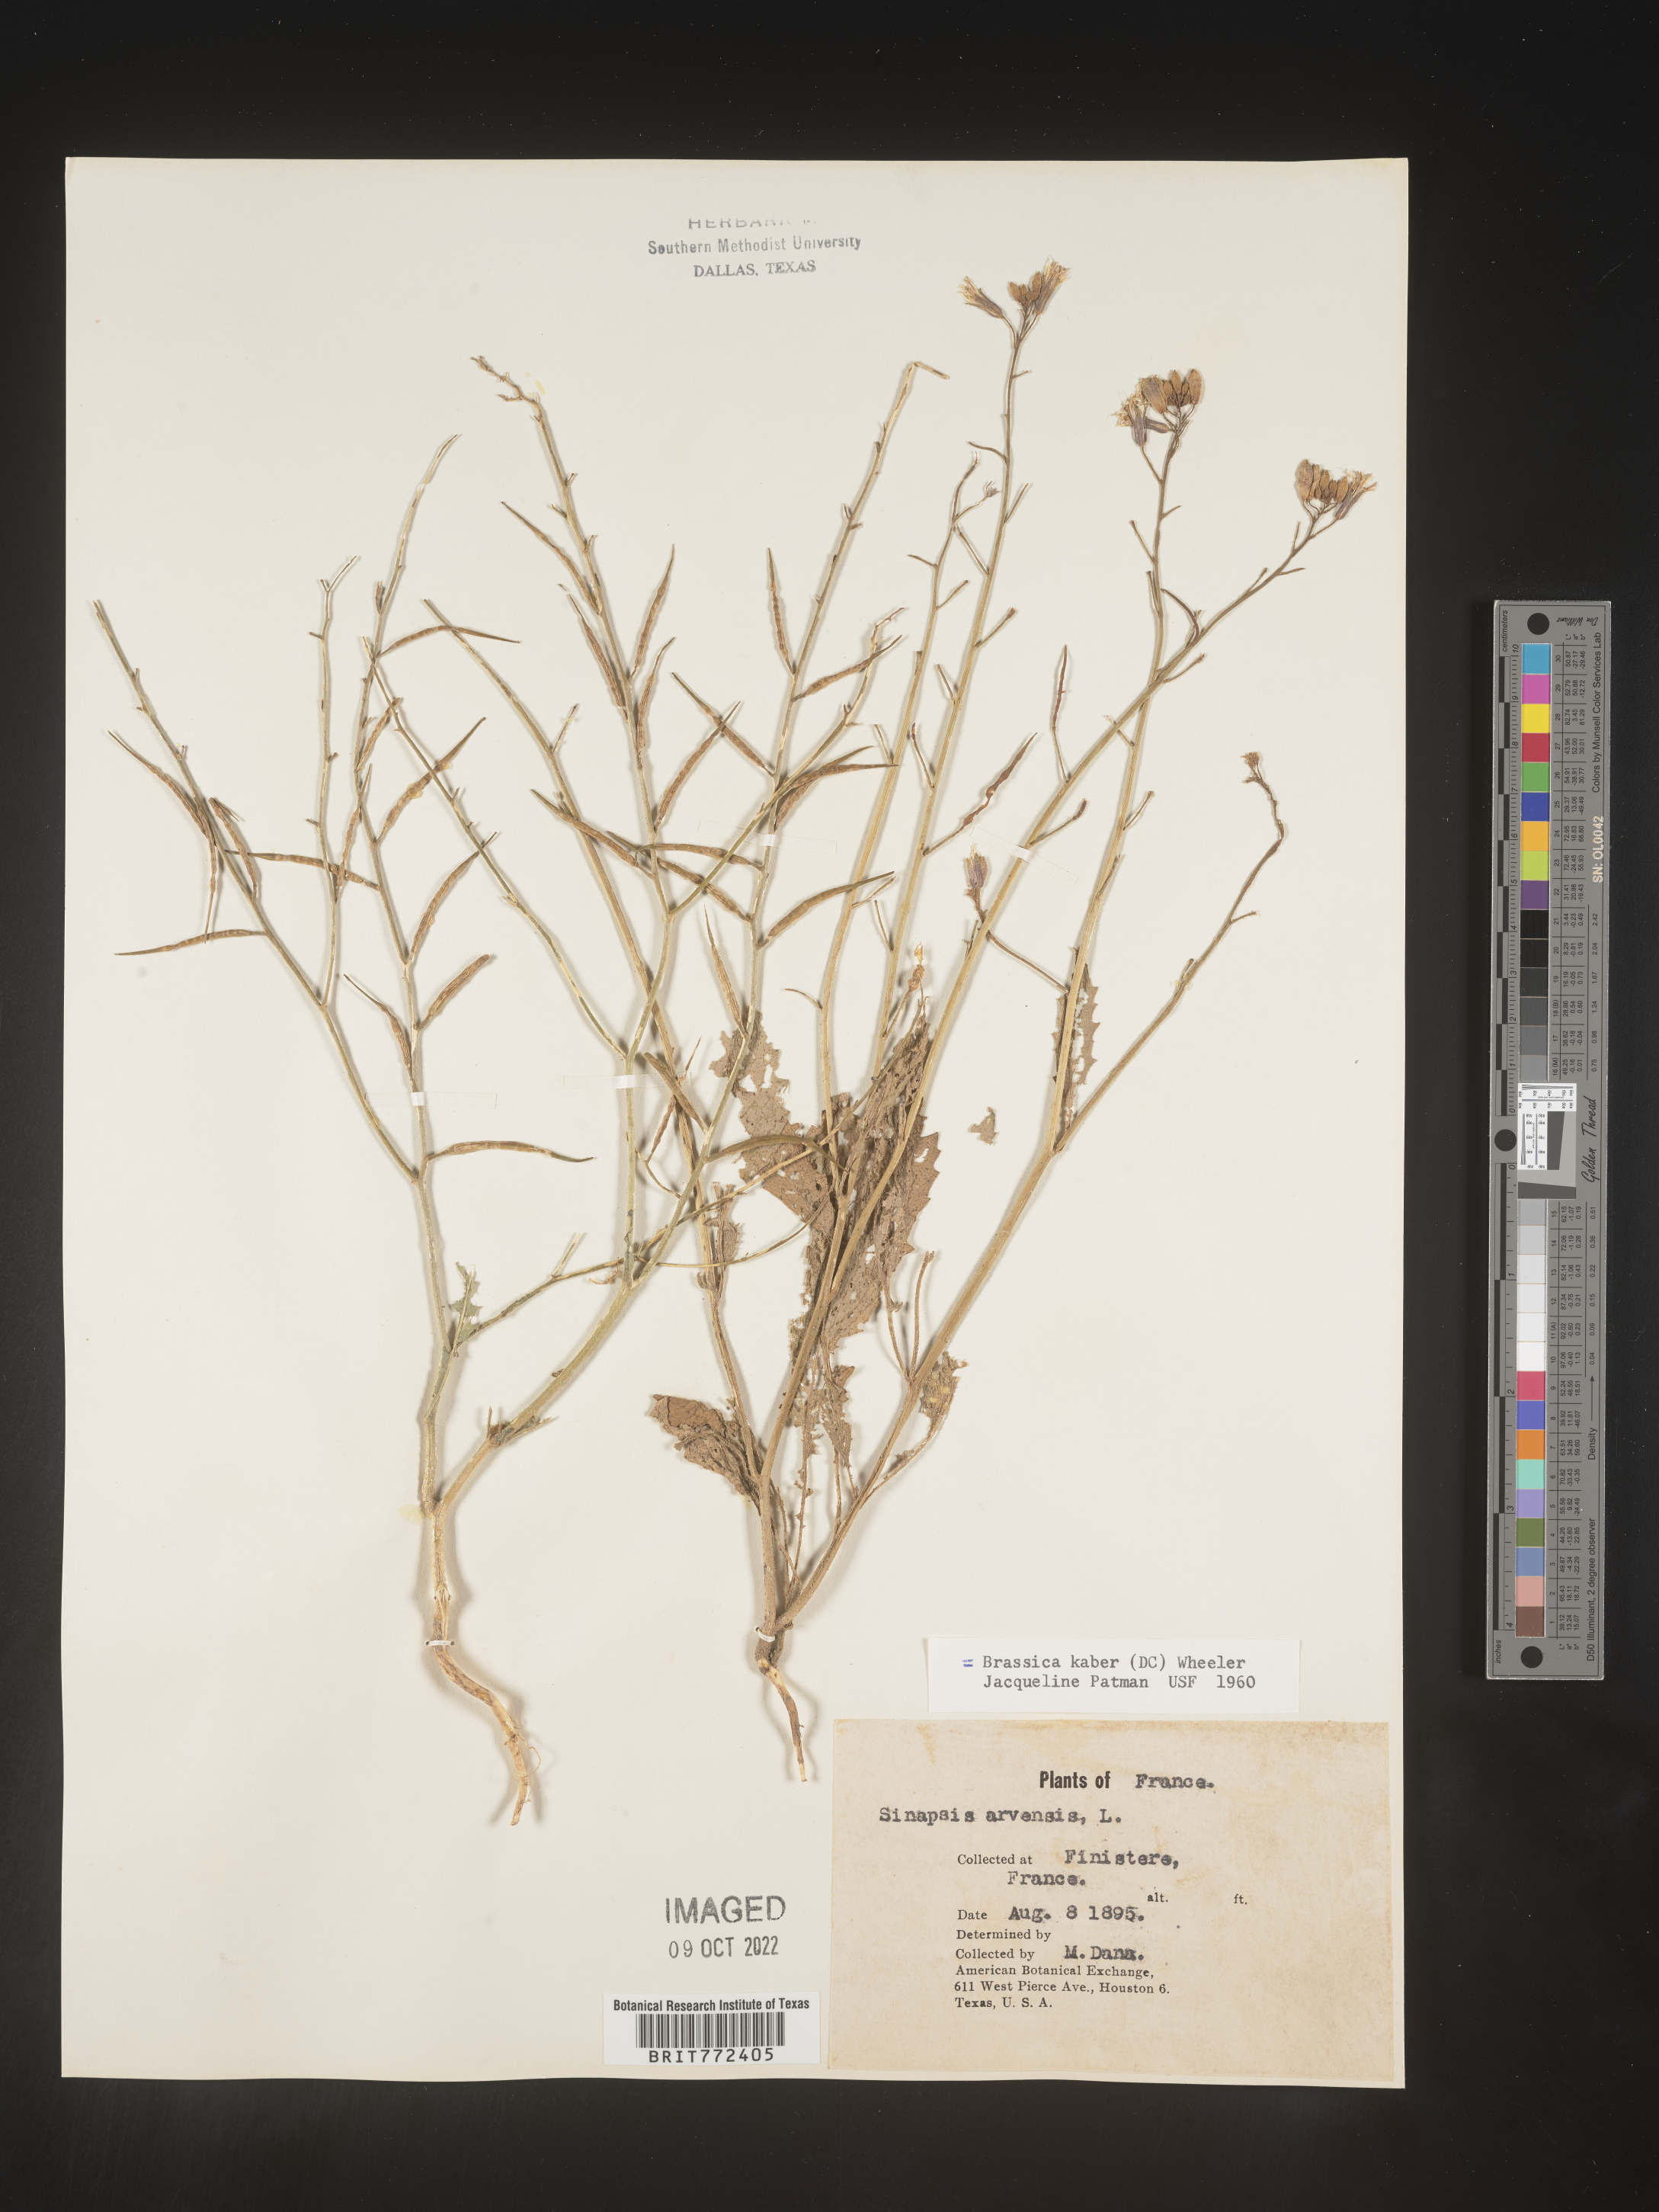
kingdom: Plantae
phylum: Tracheophyta
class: Magnoliopsida
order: Brassicales
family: Brassicaceae
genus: Brassica
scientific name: Brassica
